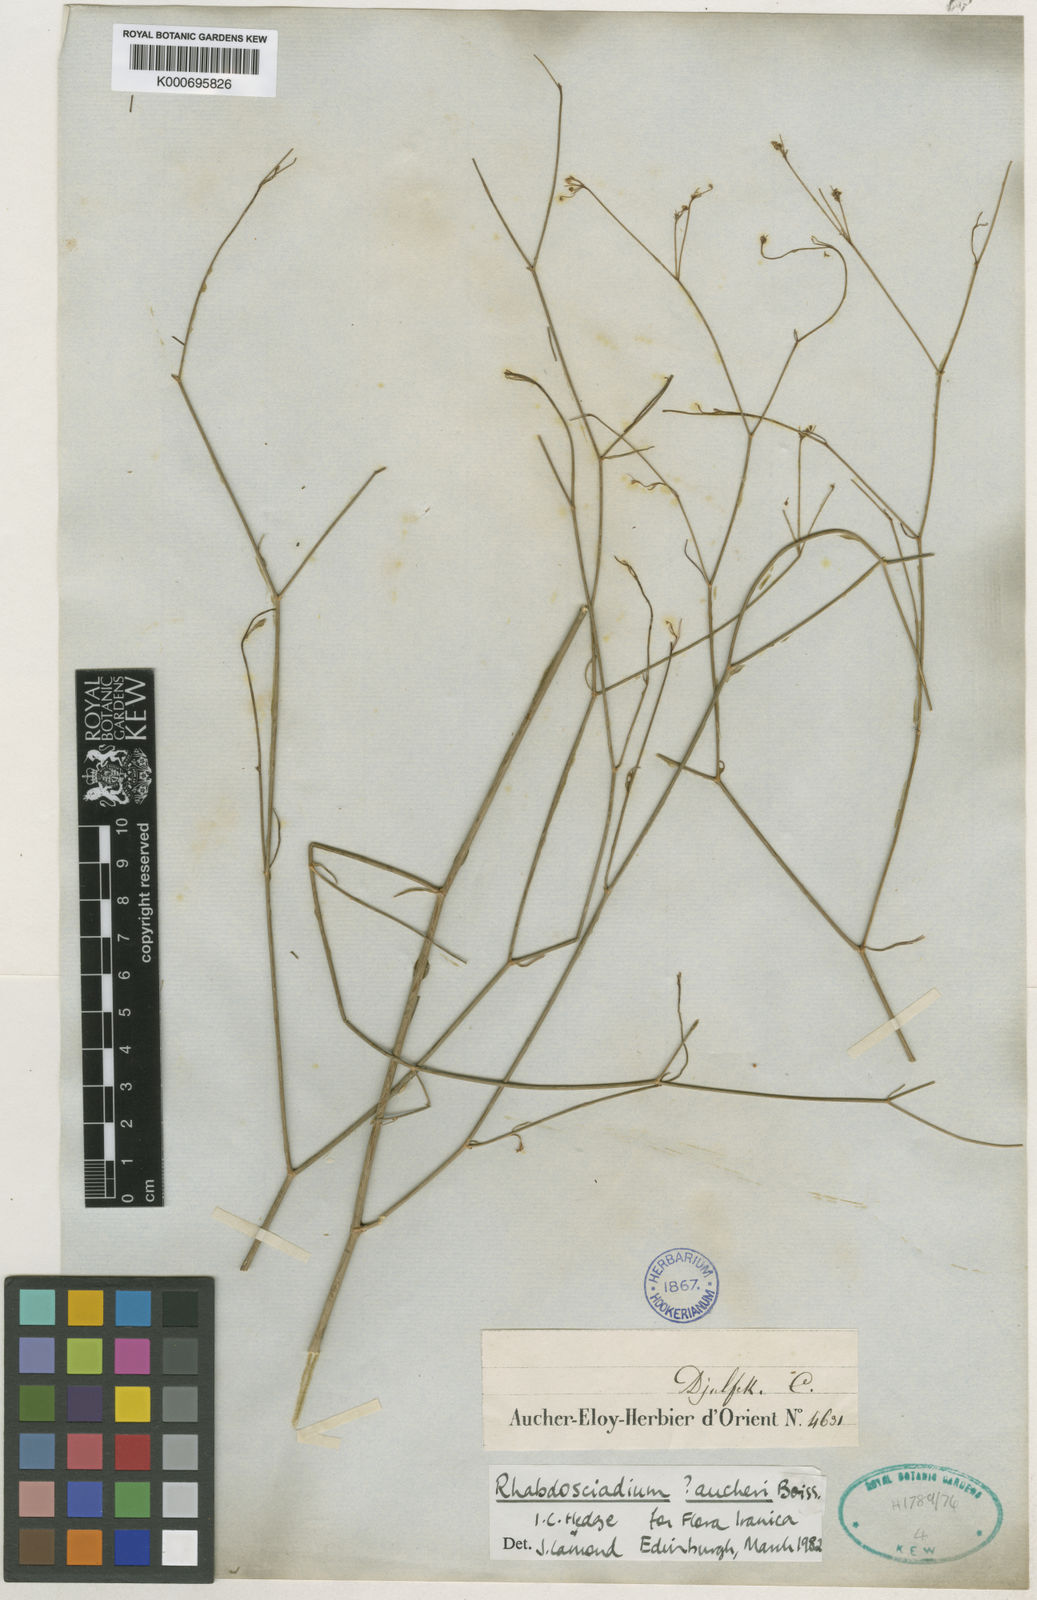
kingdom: Plantae
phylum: Tracheophyta
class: Magnoliopsida
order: Apiales
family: Apiaceae
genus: Rhabdosciadium
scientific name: Rhabdosciadium aucheri
